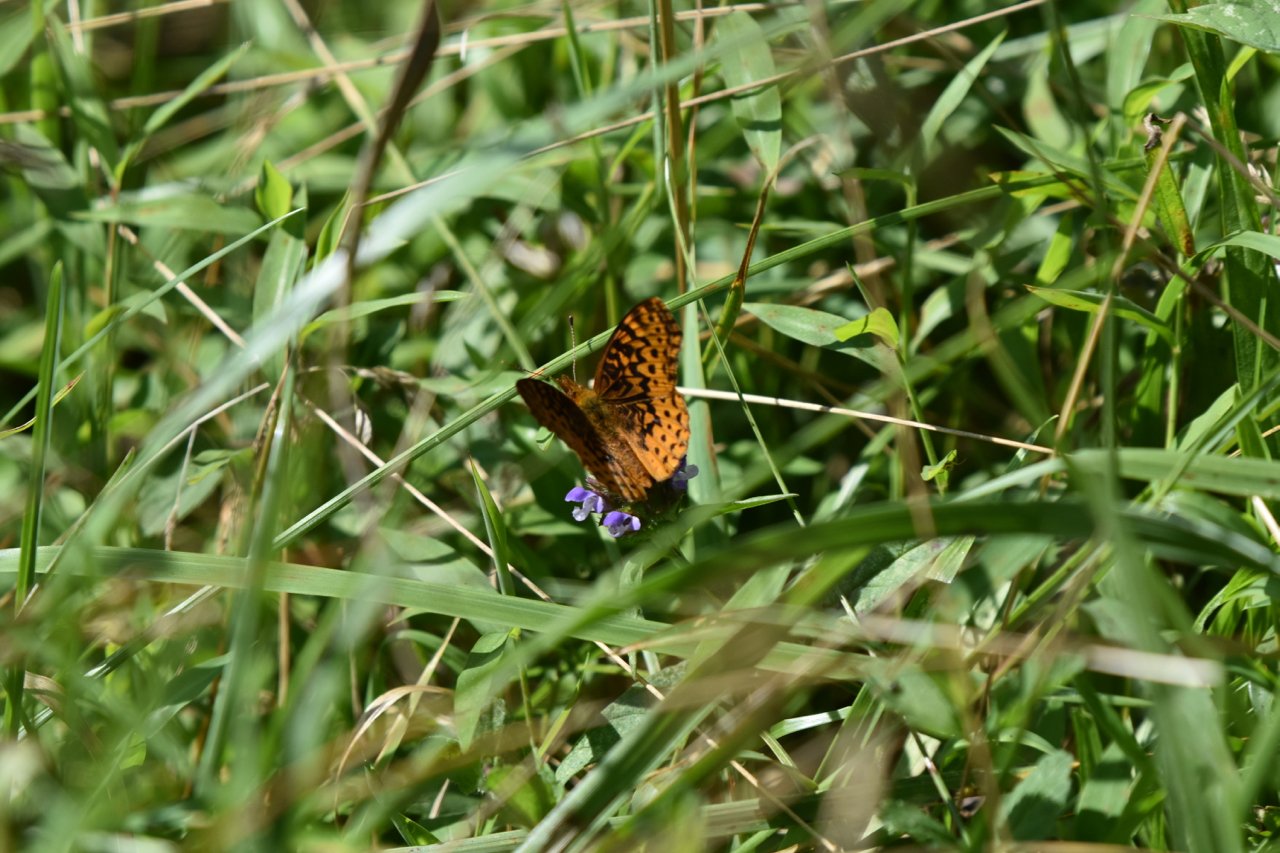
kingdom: Animalia
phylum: Arthropoda
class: Insecta
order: Lepidoptera
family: Nymphalidae
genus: Clossiana
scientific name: Clossiana toddi
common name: Meadow Fritillary
